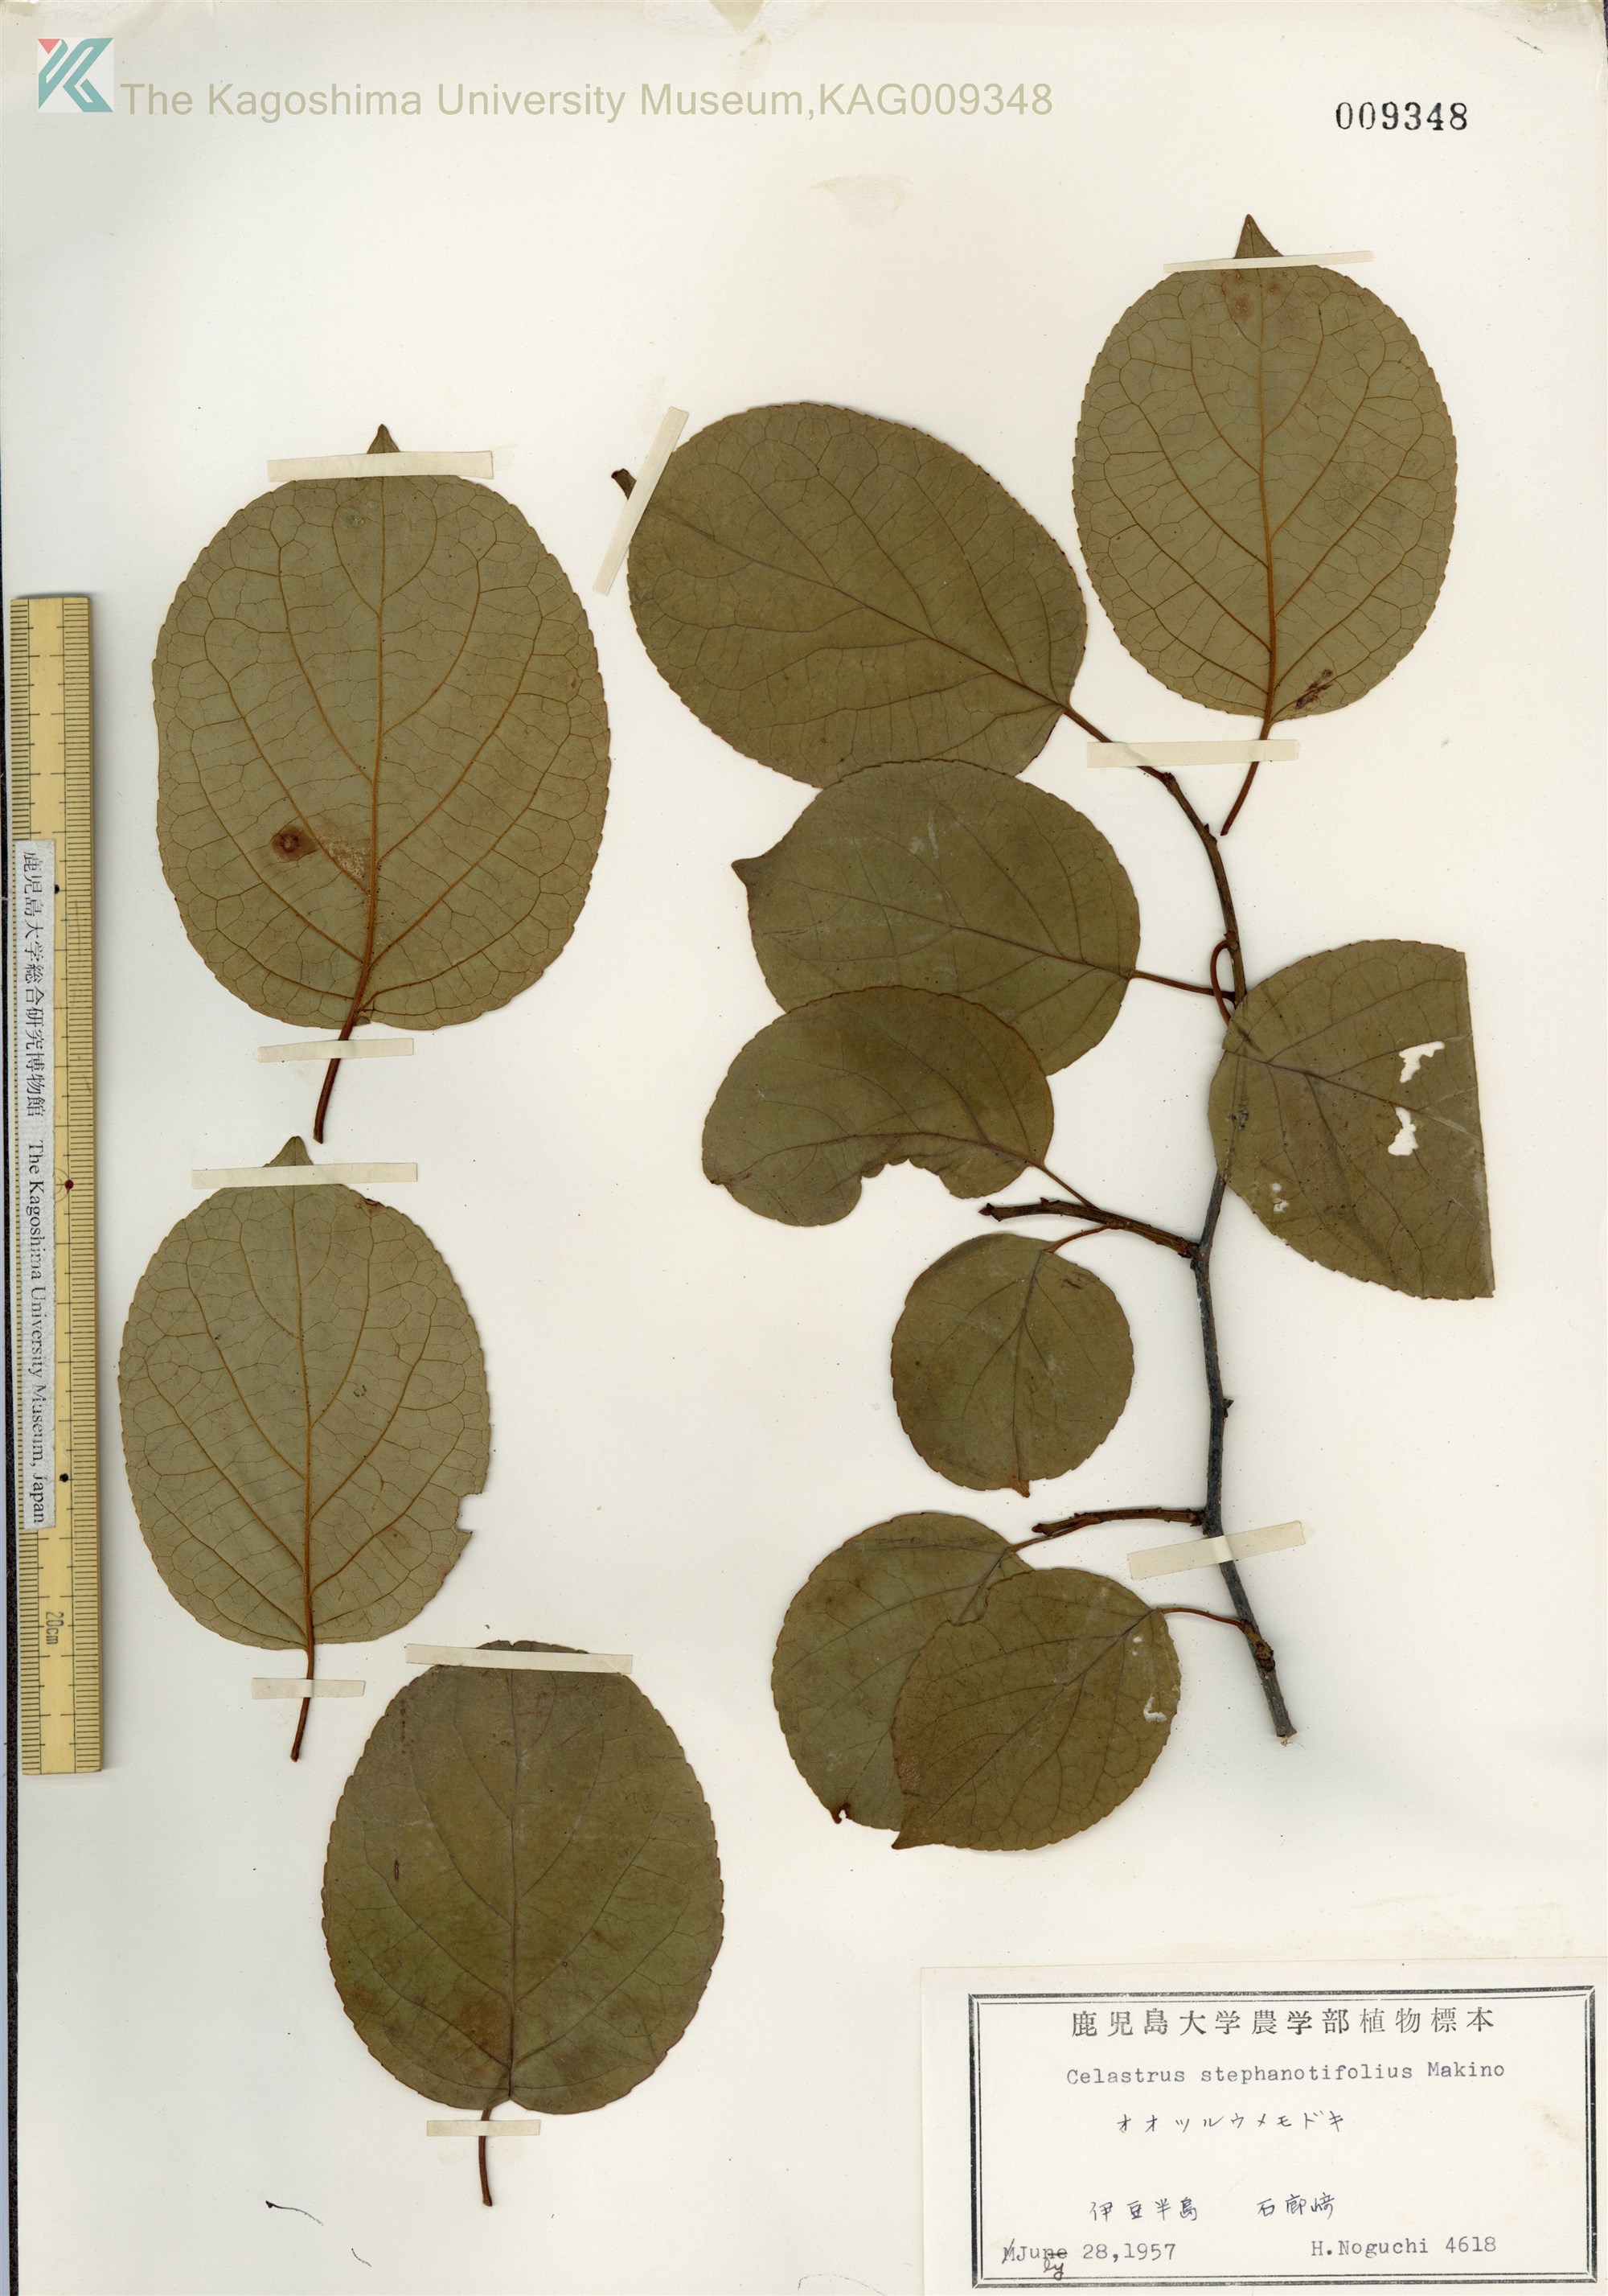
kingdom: Plantae
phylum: Tracheophyta
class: Magnoliopsida
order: Celastrales
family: Celastraceae
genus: Celastrus
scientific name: Celastrus stephanotifolius
